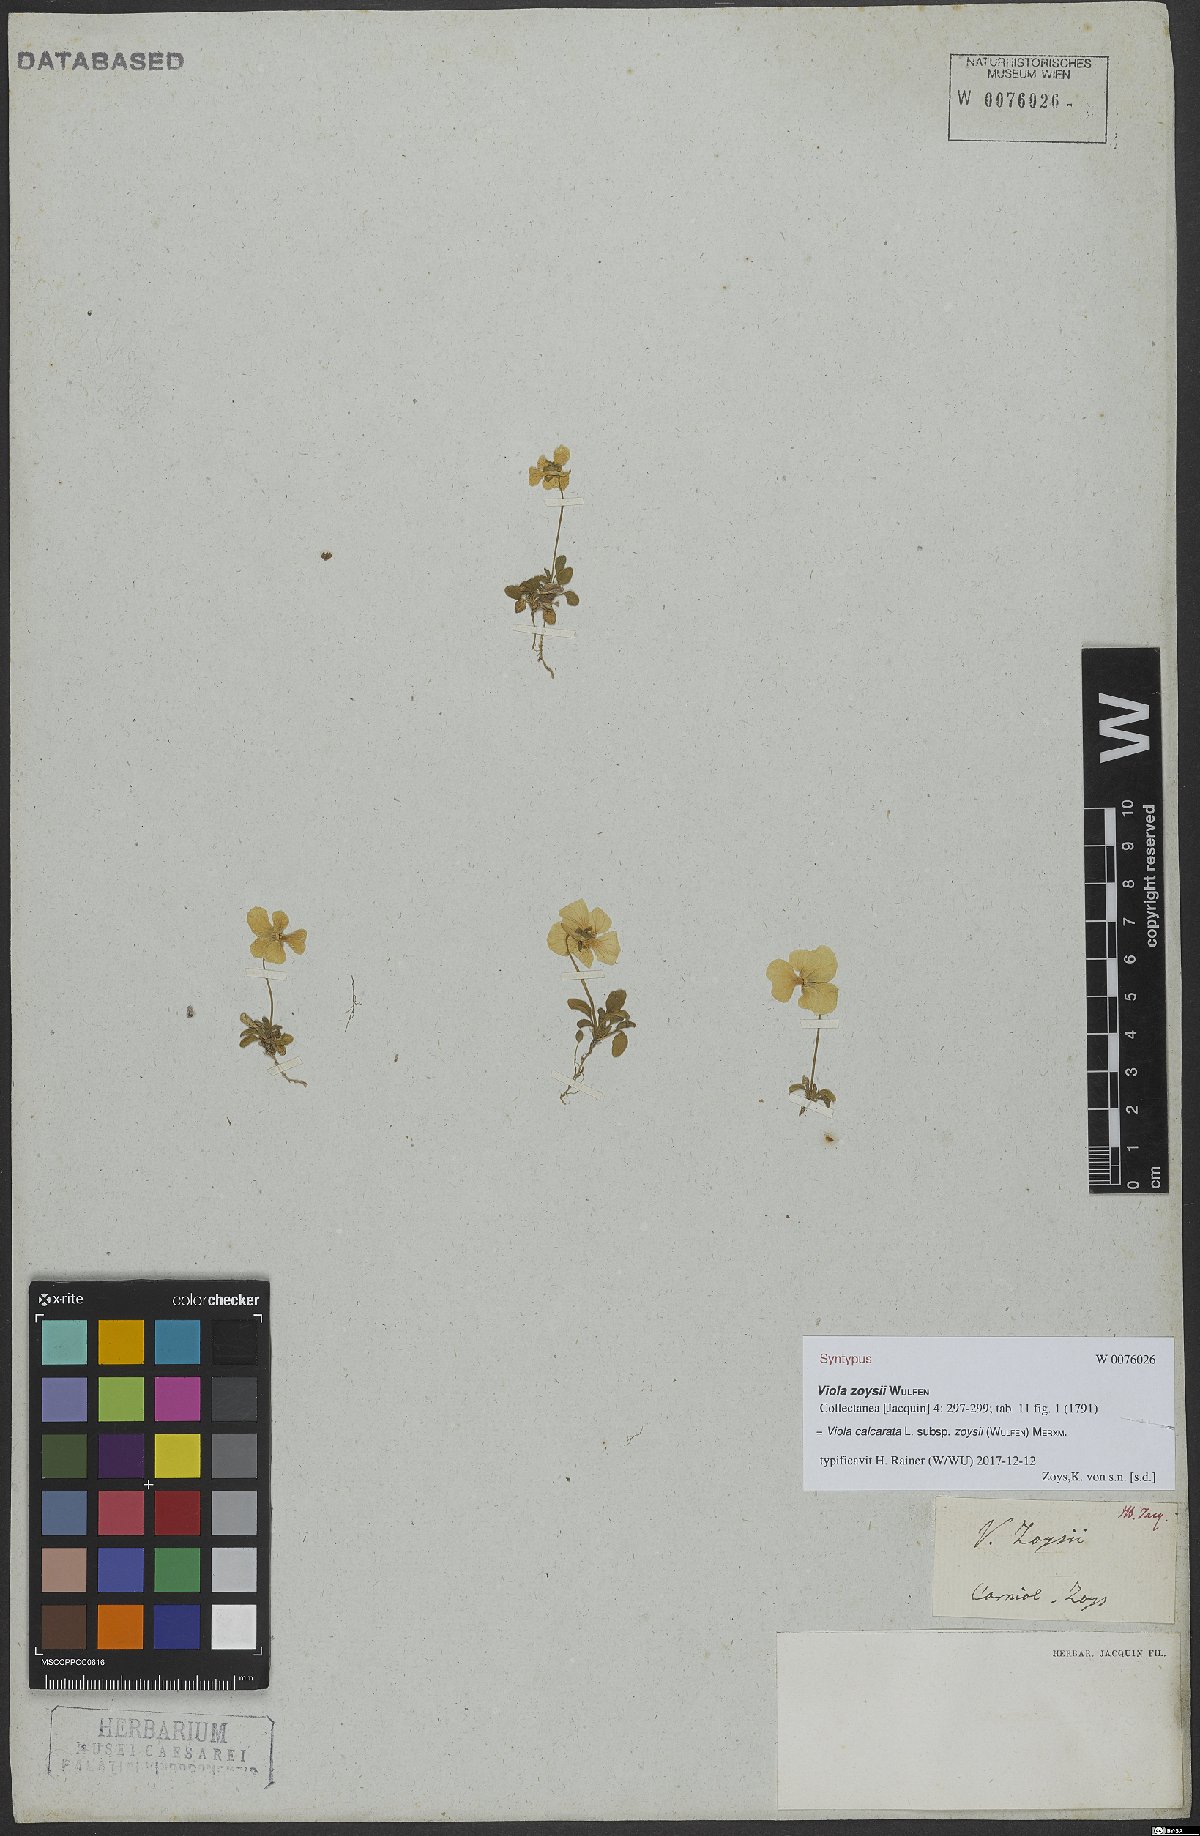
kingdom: Plantae
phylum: Tracheophyta
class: Magnoliopsida
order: Malpighiales
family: Violaceae
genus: Viola
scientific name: Viola calcarata
